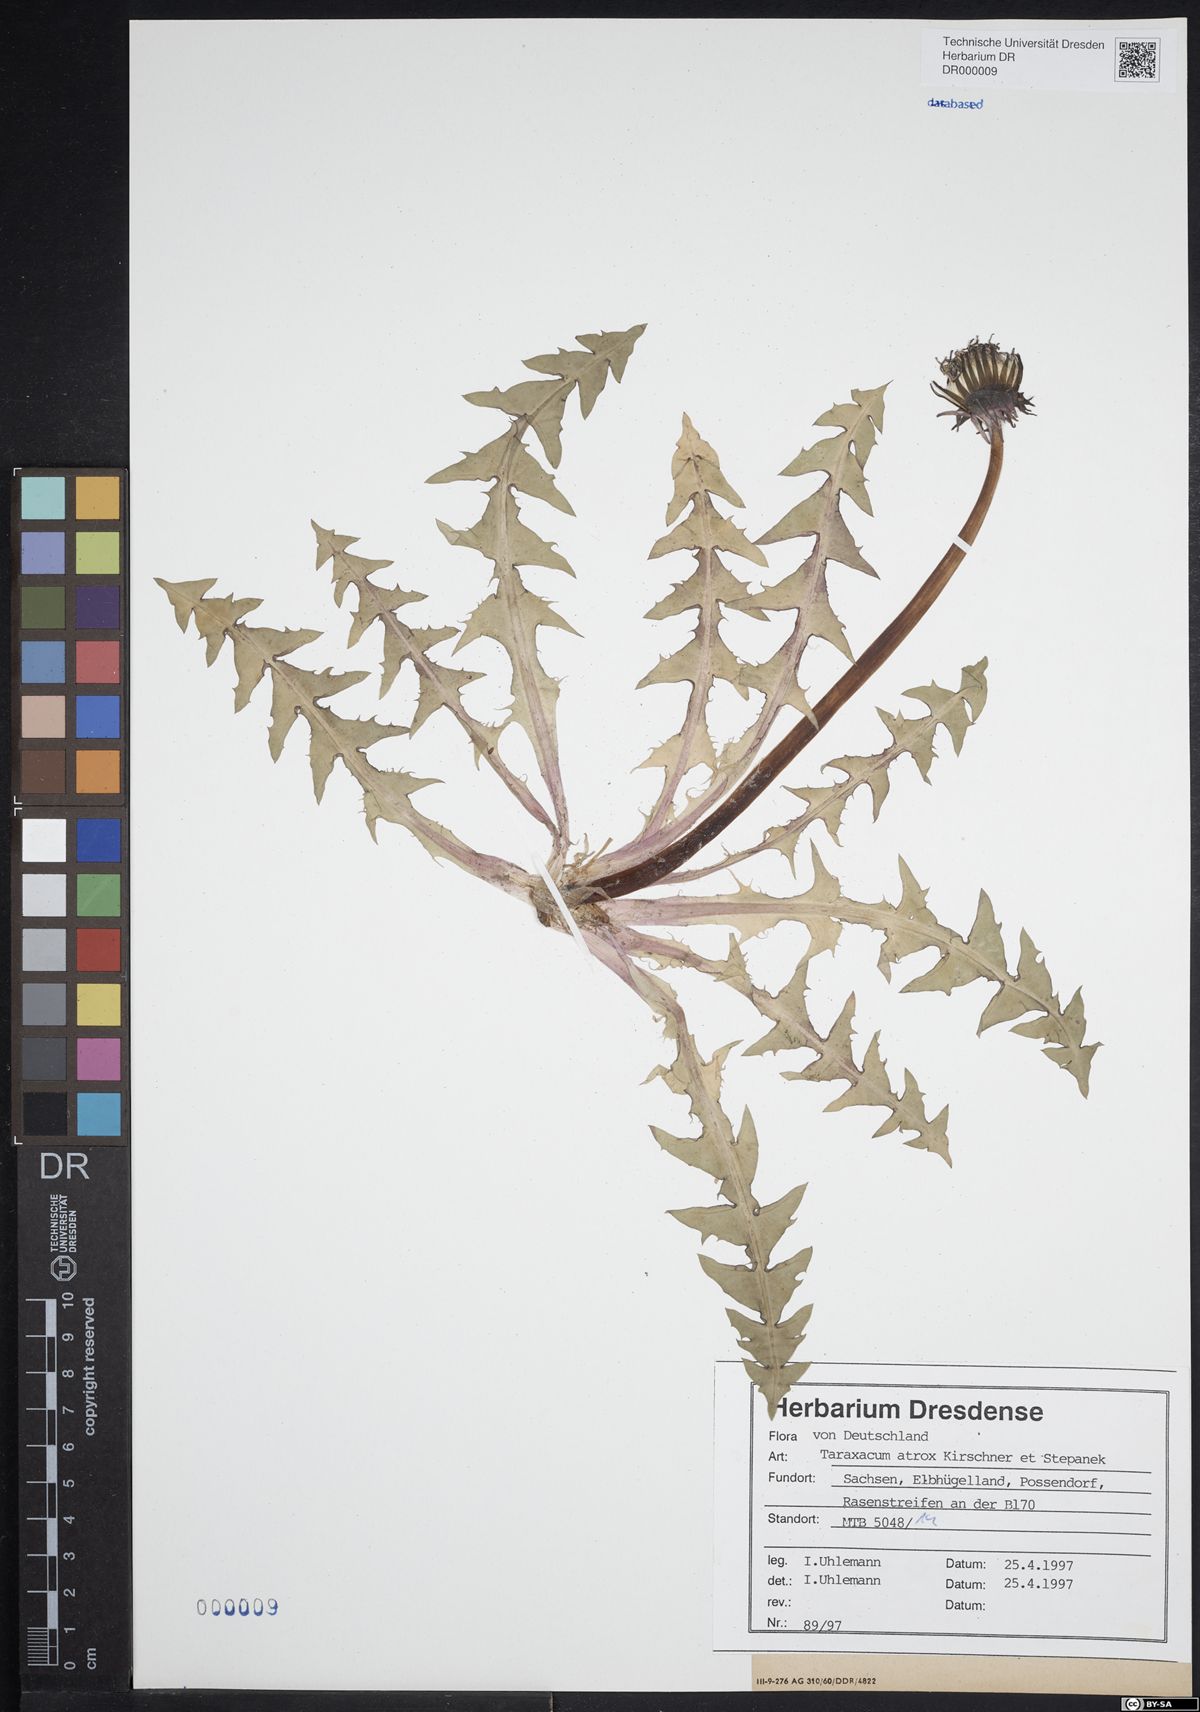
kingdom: Plantae
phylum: Tracheophyta
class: Magnoliopsida
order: Asterales
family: Asteraceae
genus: Taraxacum
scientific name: Taraxacum atrox
